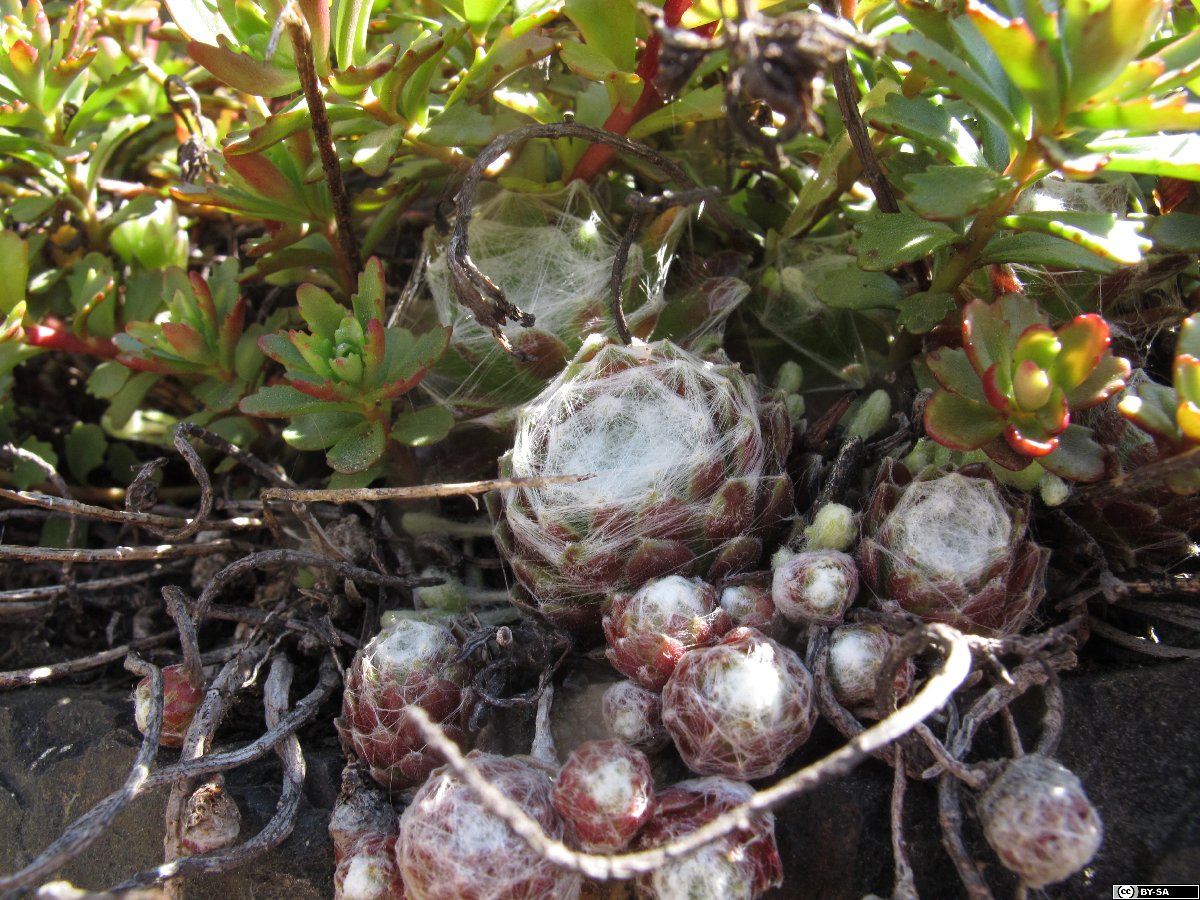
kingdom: Plantae
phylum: Tracheophyta
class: Magnoliopsida
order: Saxifragales
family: Crassulaceae
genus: Sempervivum
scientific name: Sempervivum arachnoideum
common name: Cobweb house-leek
